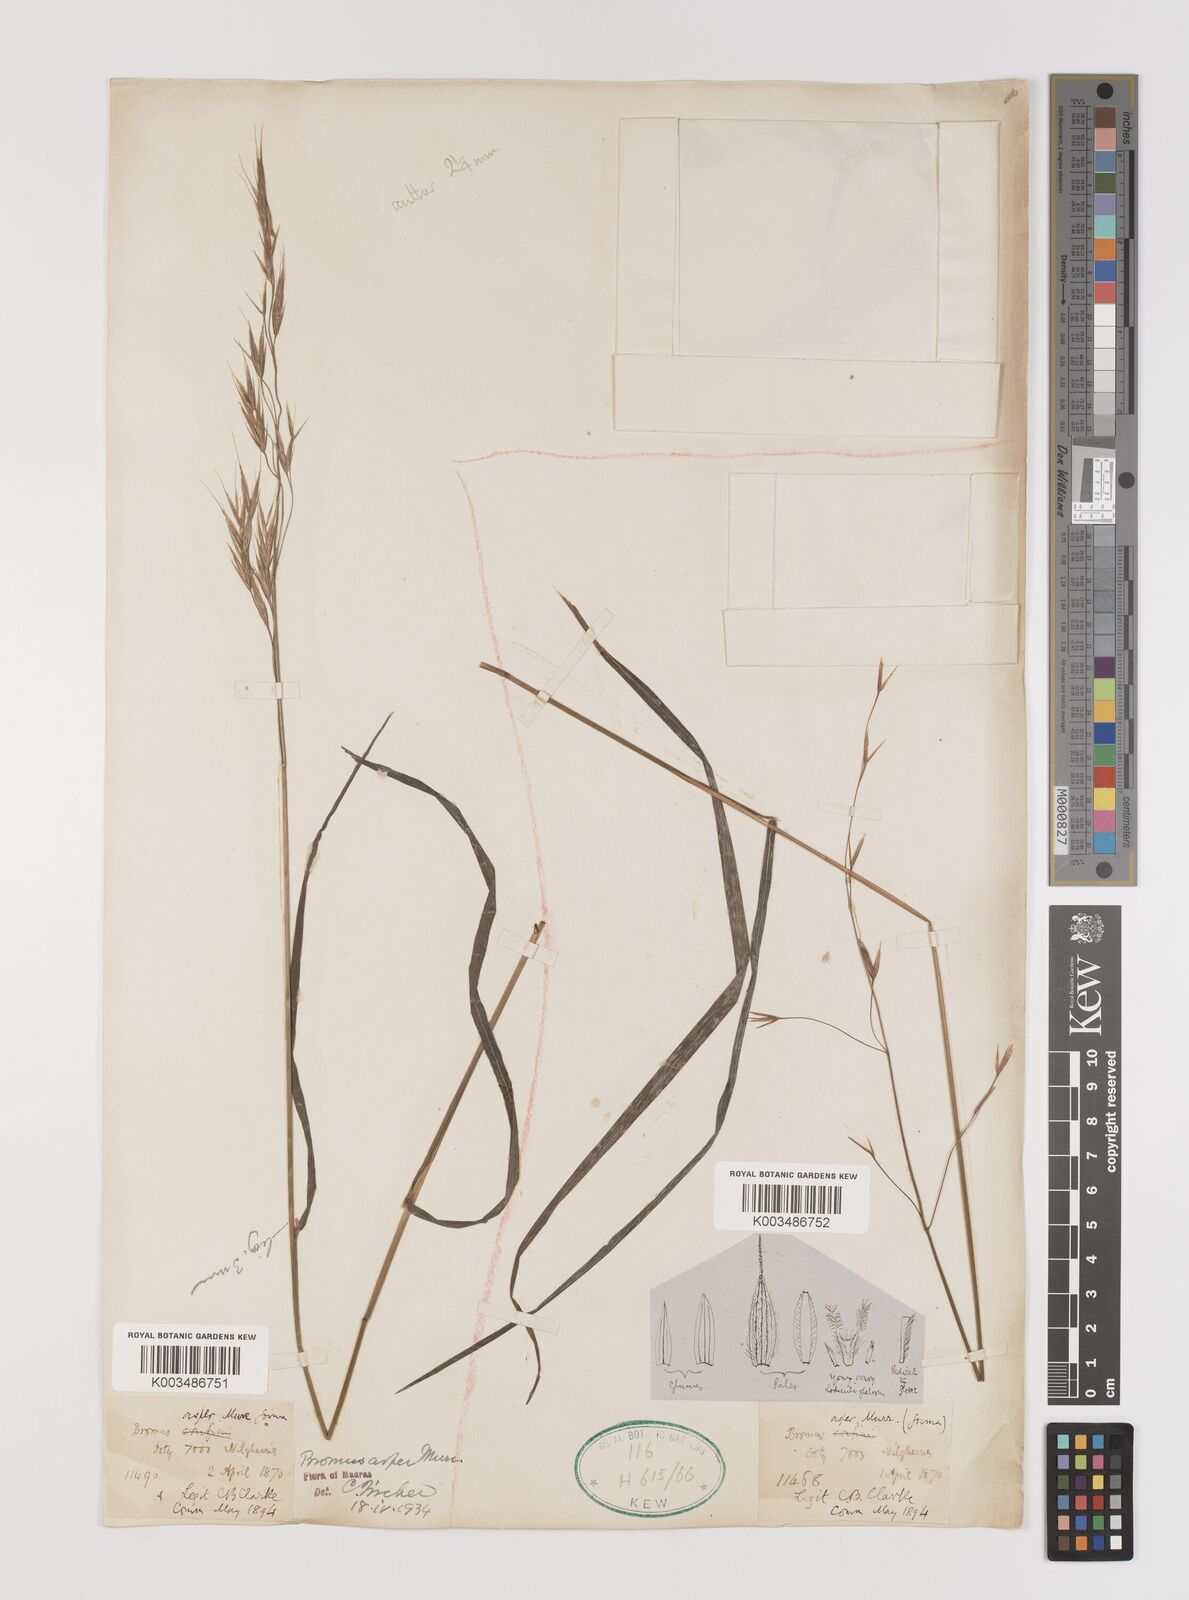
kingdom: Plantae
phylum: Tracheophyta
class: Liliopsida
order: Poales
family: Poaceae
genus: Brachypodium
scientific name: Brachypodium retusum
